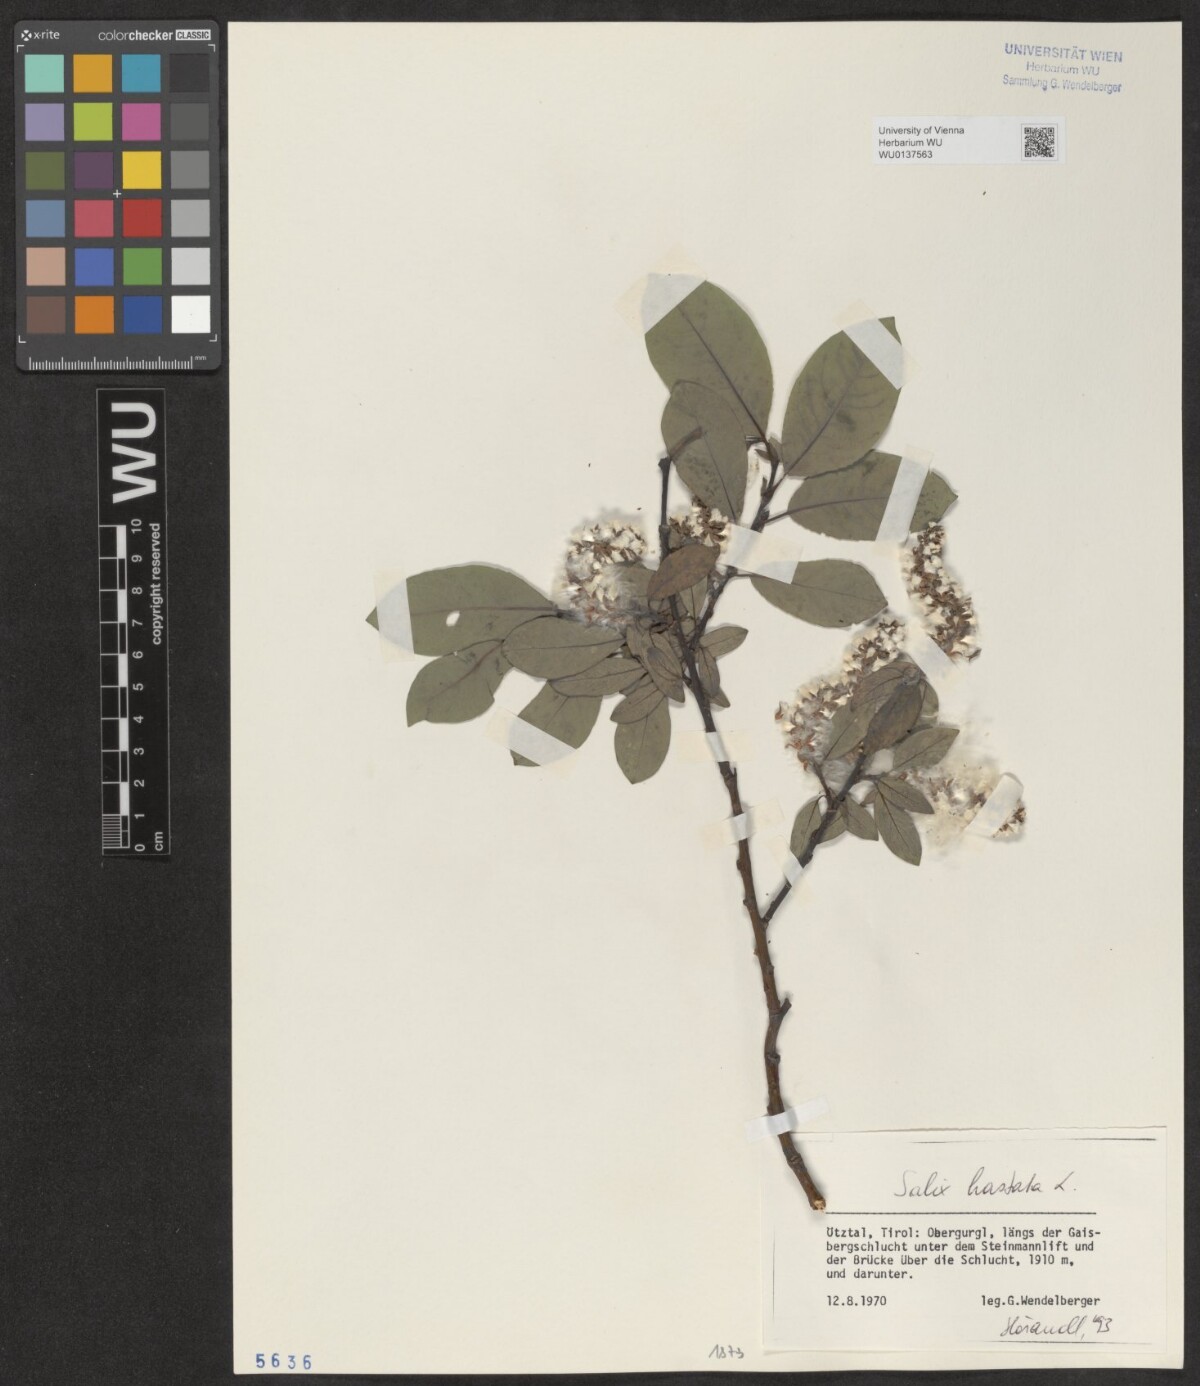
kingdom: Plantae
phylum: Tracheophyta
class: Magnoliopsida
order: Malpighiales
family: Salicaceae
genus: Salix
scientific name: Salix hastata
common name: Halberd willow
